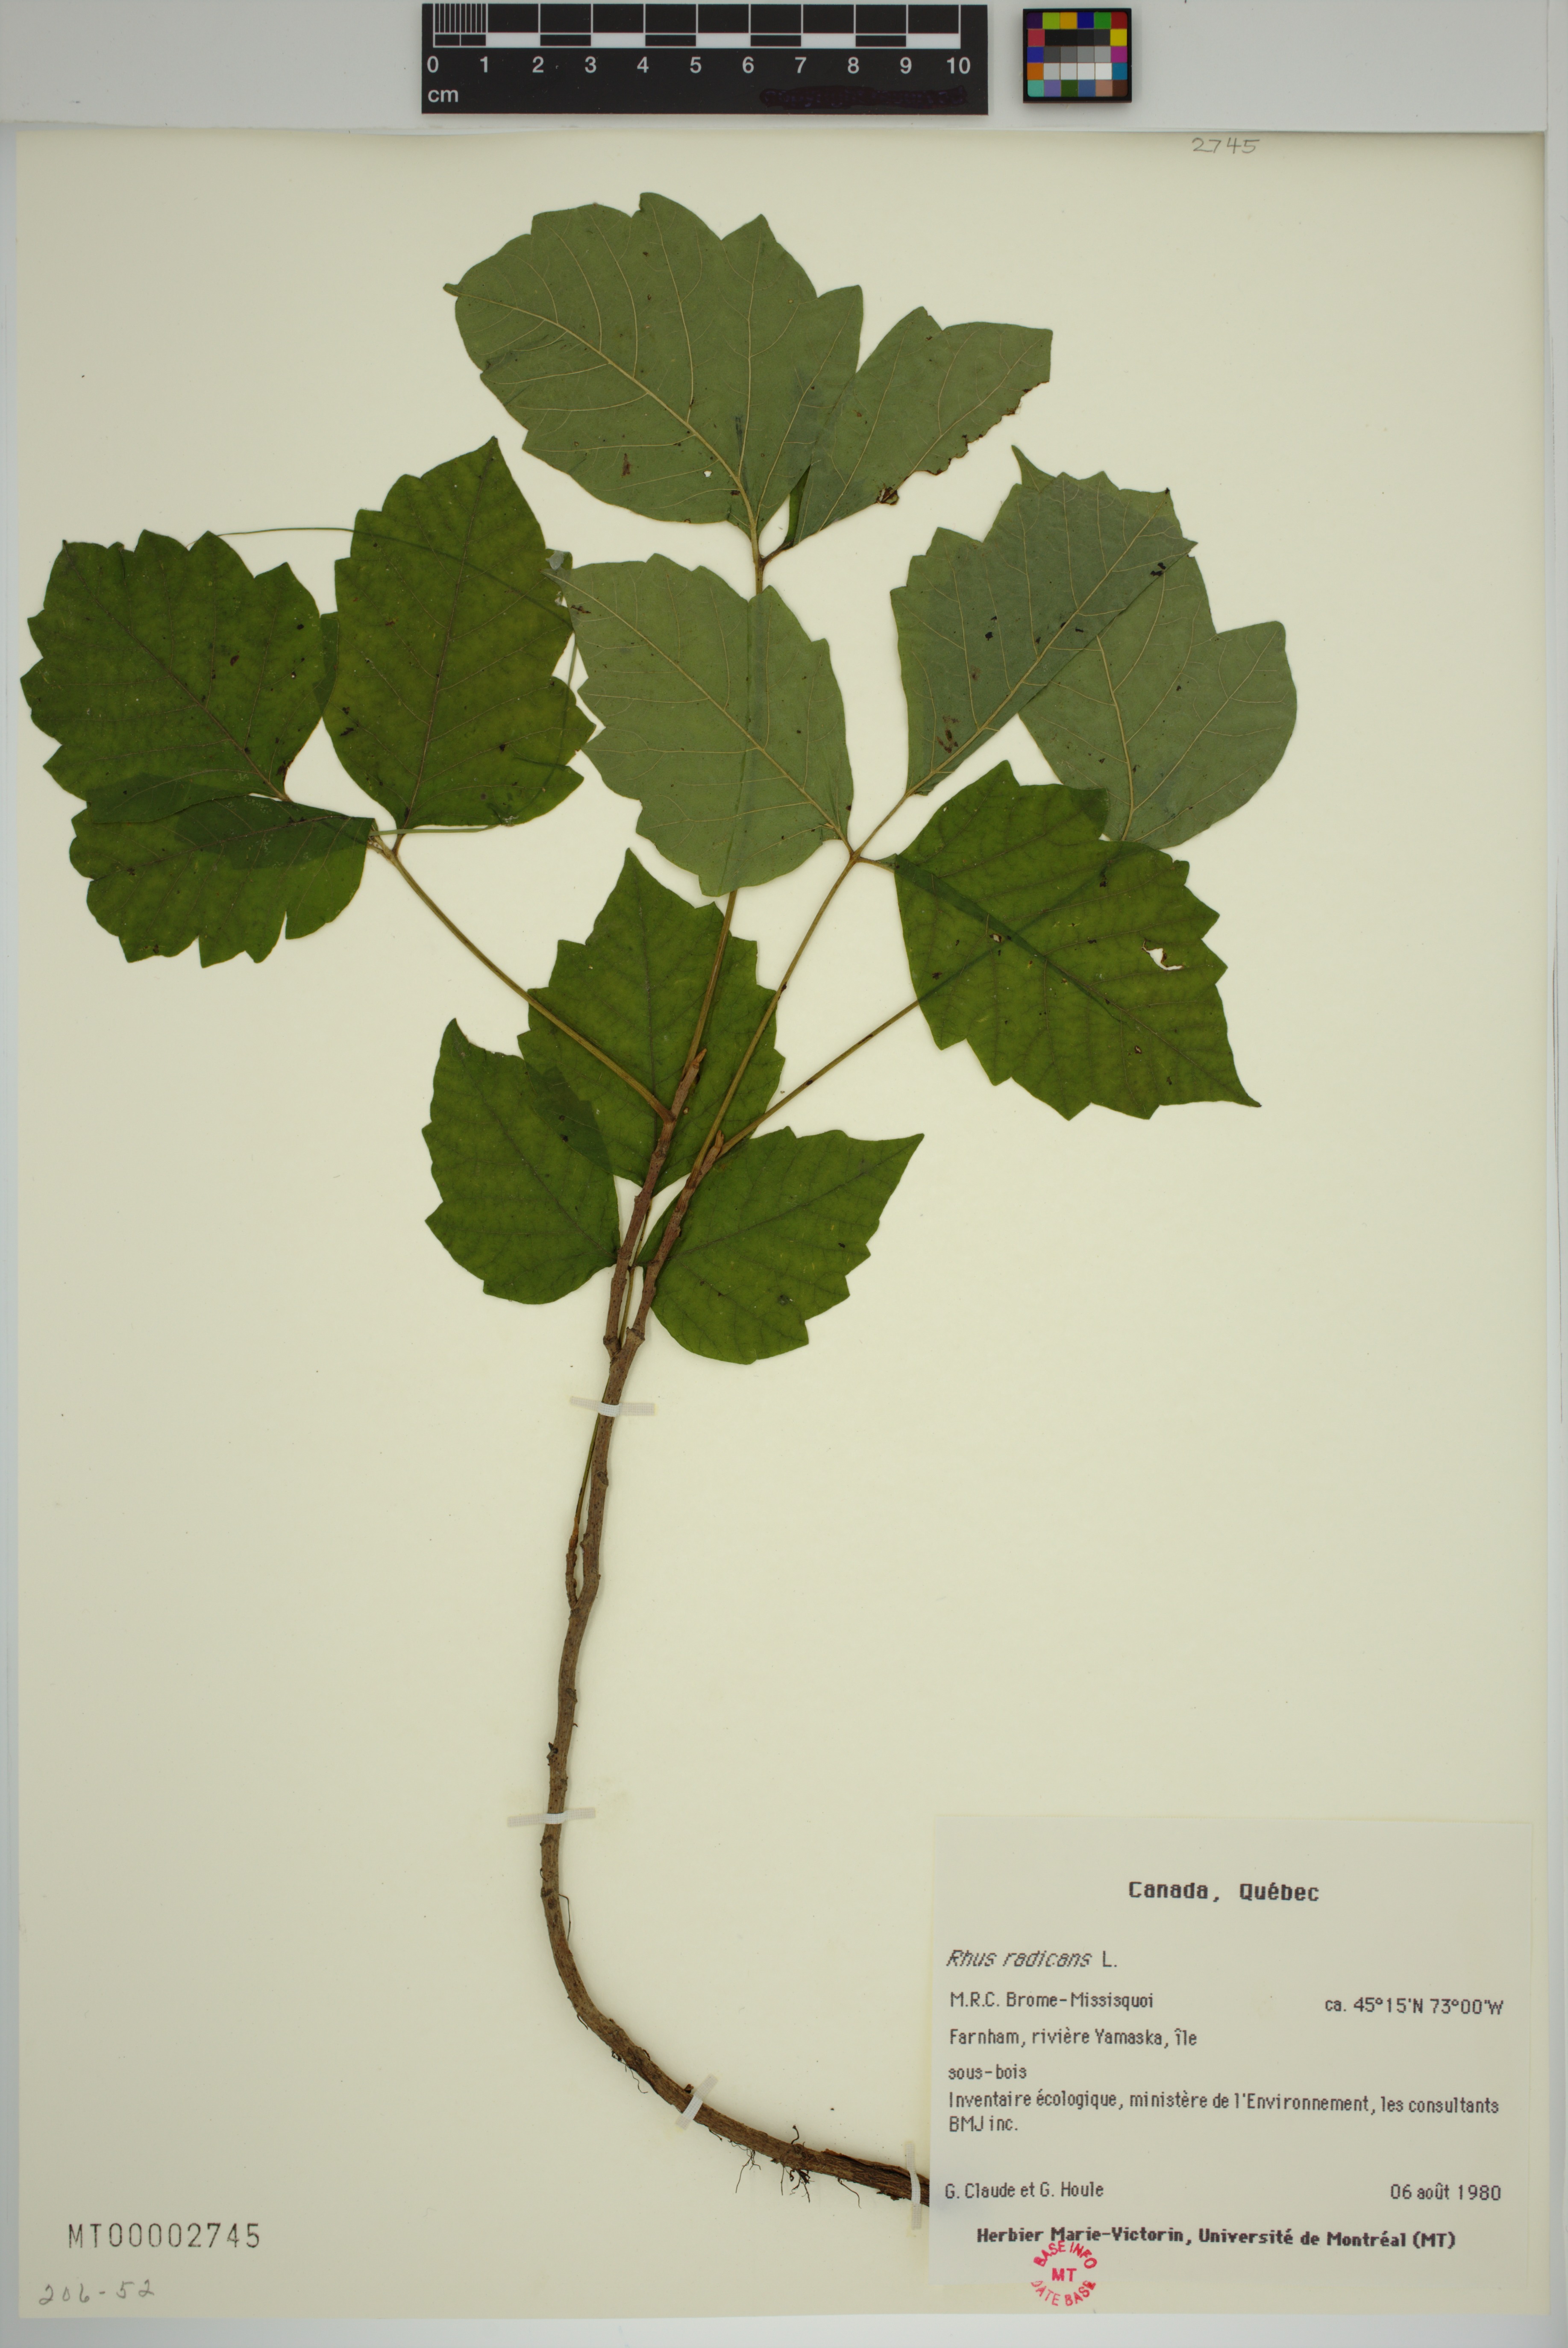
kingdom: Plantae
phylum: Tracheophyta
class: Magnoliopsida
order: Sapindales
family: Anacardiaceae
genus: Toxicodendron
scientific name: Toxicodendron radicans
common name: Poison ivy
